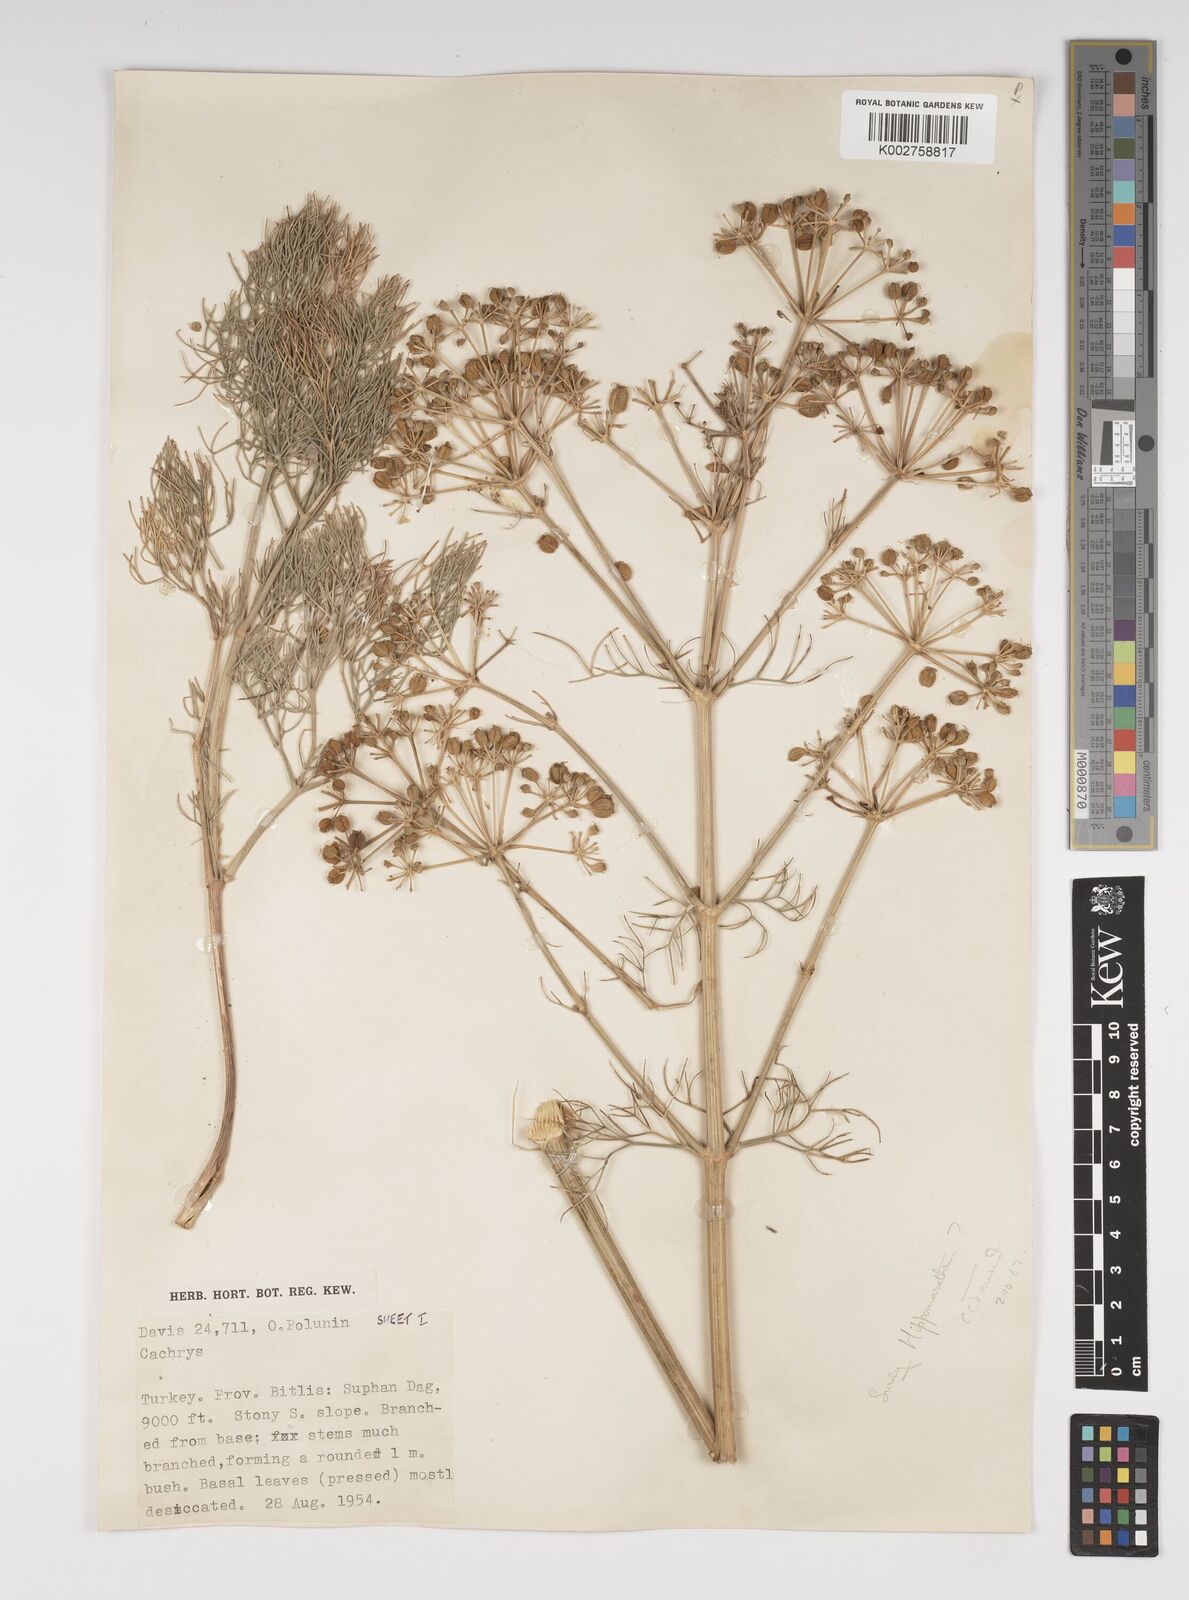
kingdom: Plantae
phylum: Tracheophyta
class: Magnoliopsida
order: Apiales
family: Apiaceae
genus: Bilacunaria
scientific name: Bilacunaria microcarpa
